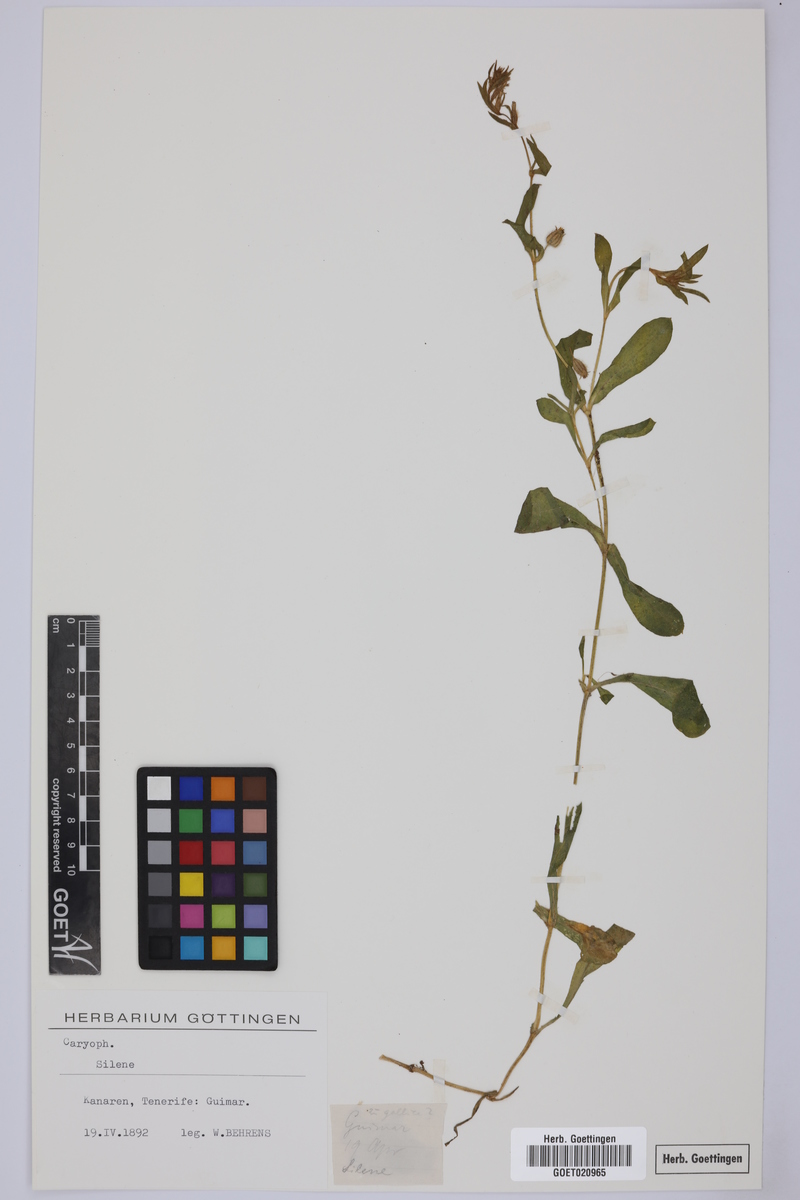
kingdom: Plantae
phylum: Tracheophyta
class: Magnoliopsida
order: Caryophyllales
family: Caryophyllaceae
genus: Silene
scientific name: Silene
